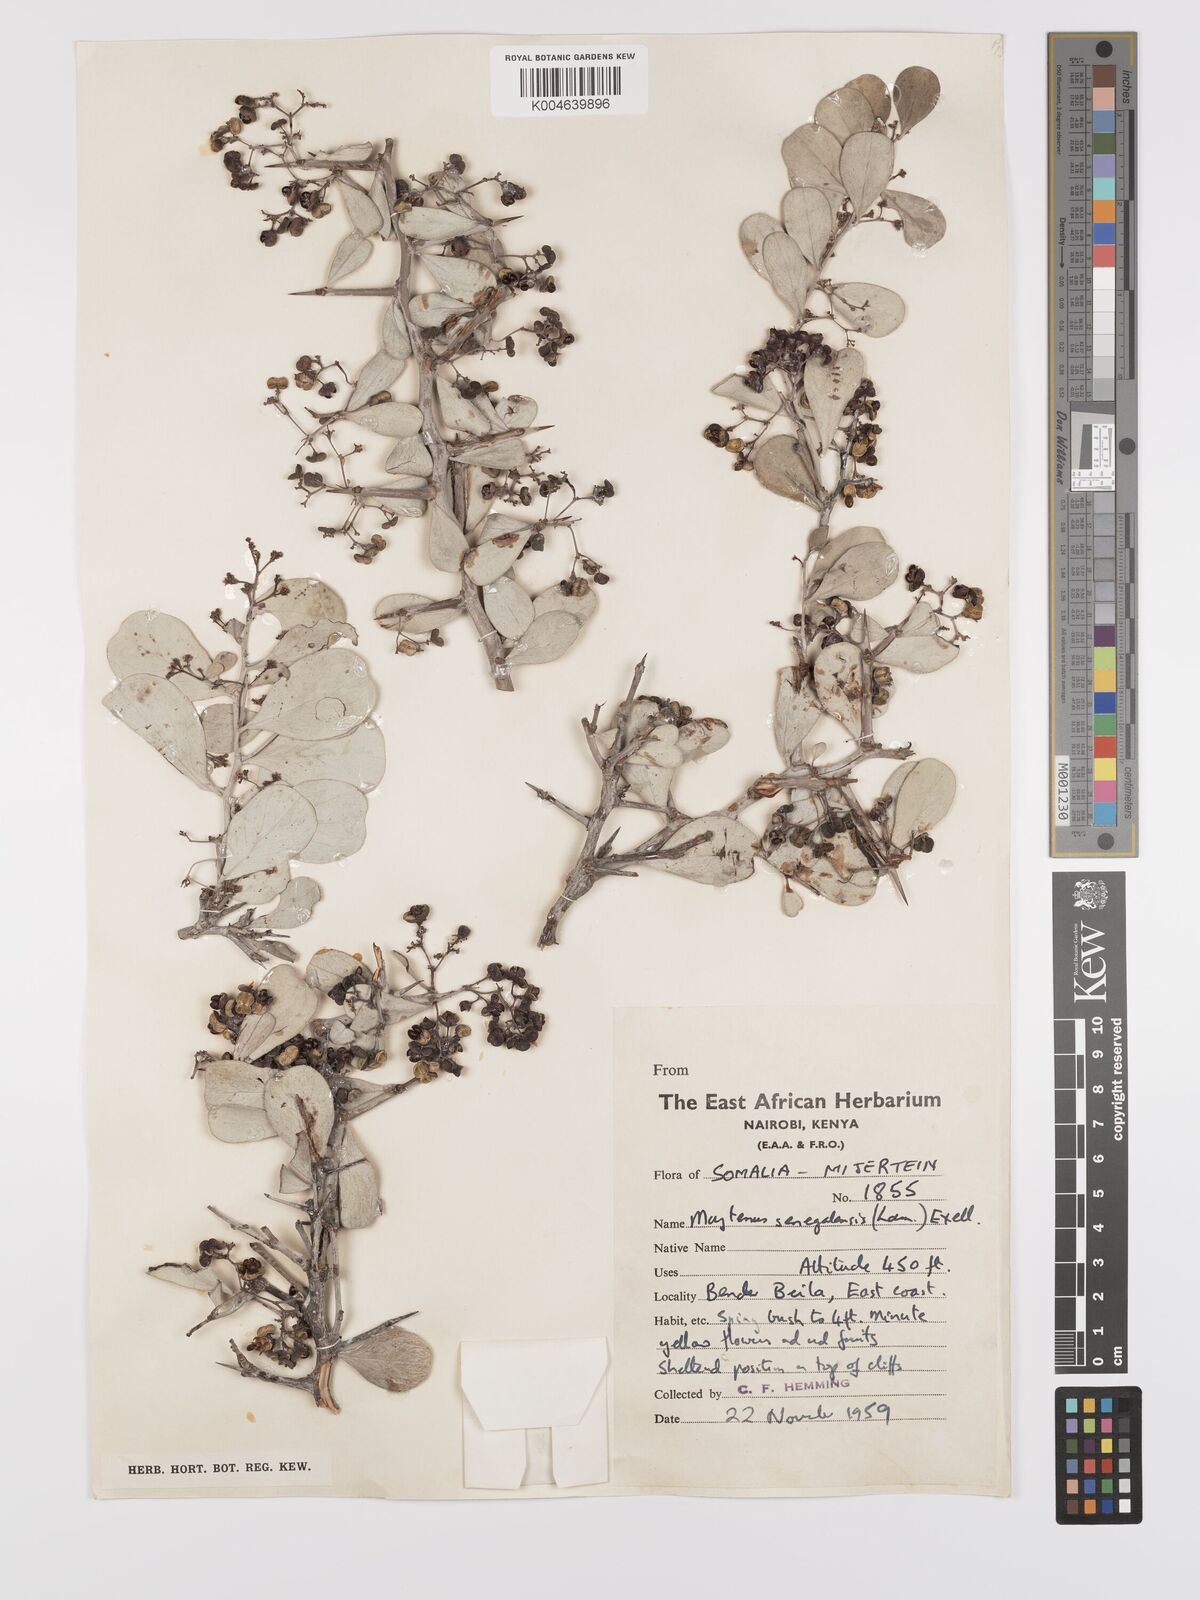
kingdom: Plantae
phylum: Tracheophyta
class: Magnoliopsida
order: Celastrales
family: Celastraceae
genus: Gymnosporia
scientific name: Gymnosporia senegalensis
